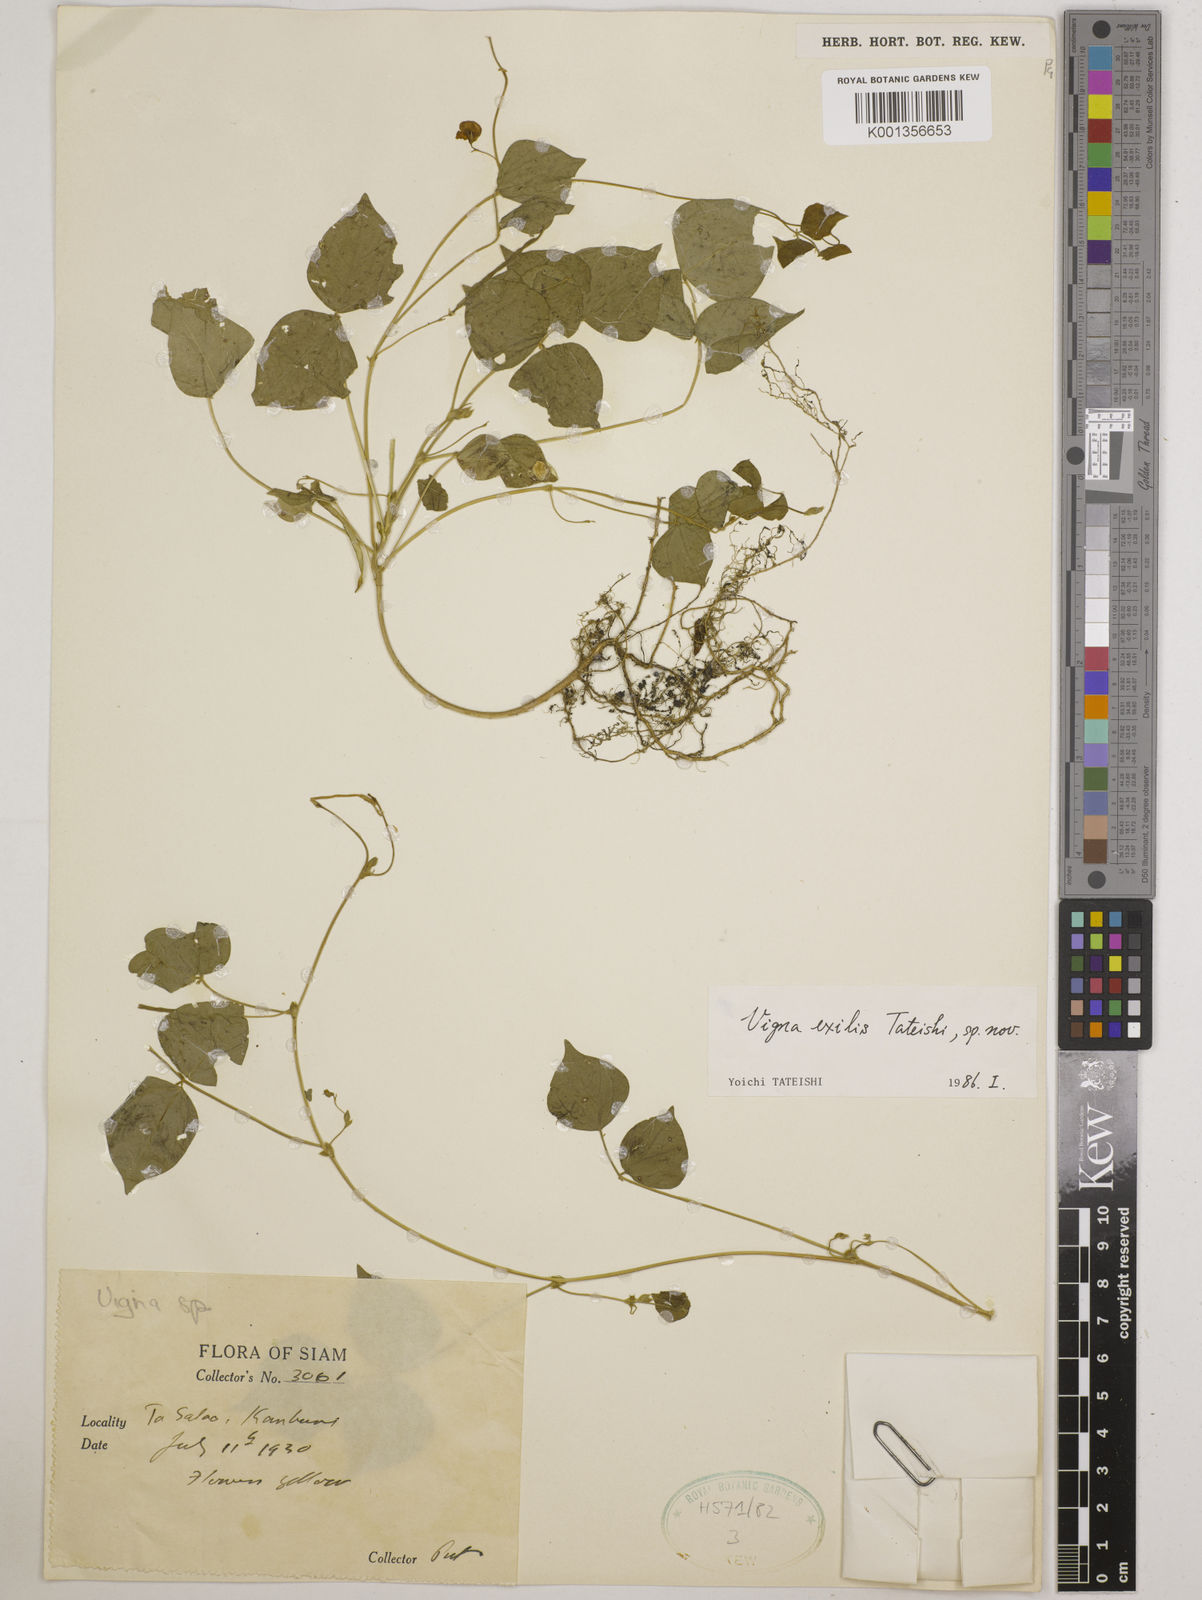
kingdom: Plantae
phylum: Tracheophyta
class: Magnoliopsida
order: Fabales
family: Fabaceae
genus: Vigna
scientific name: Vigna
